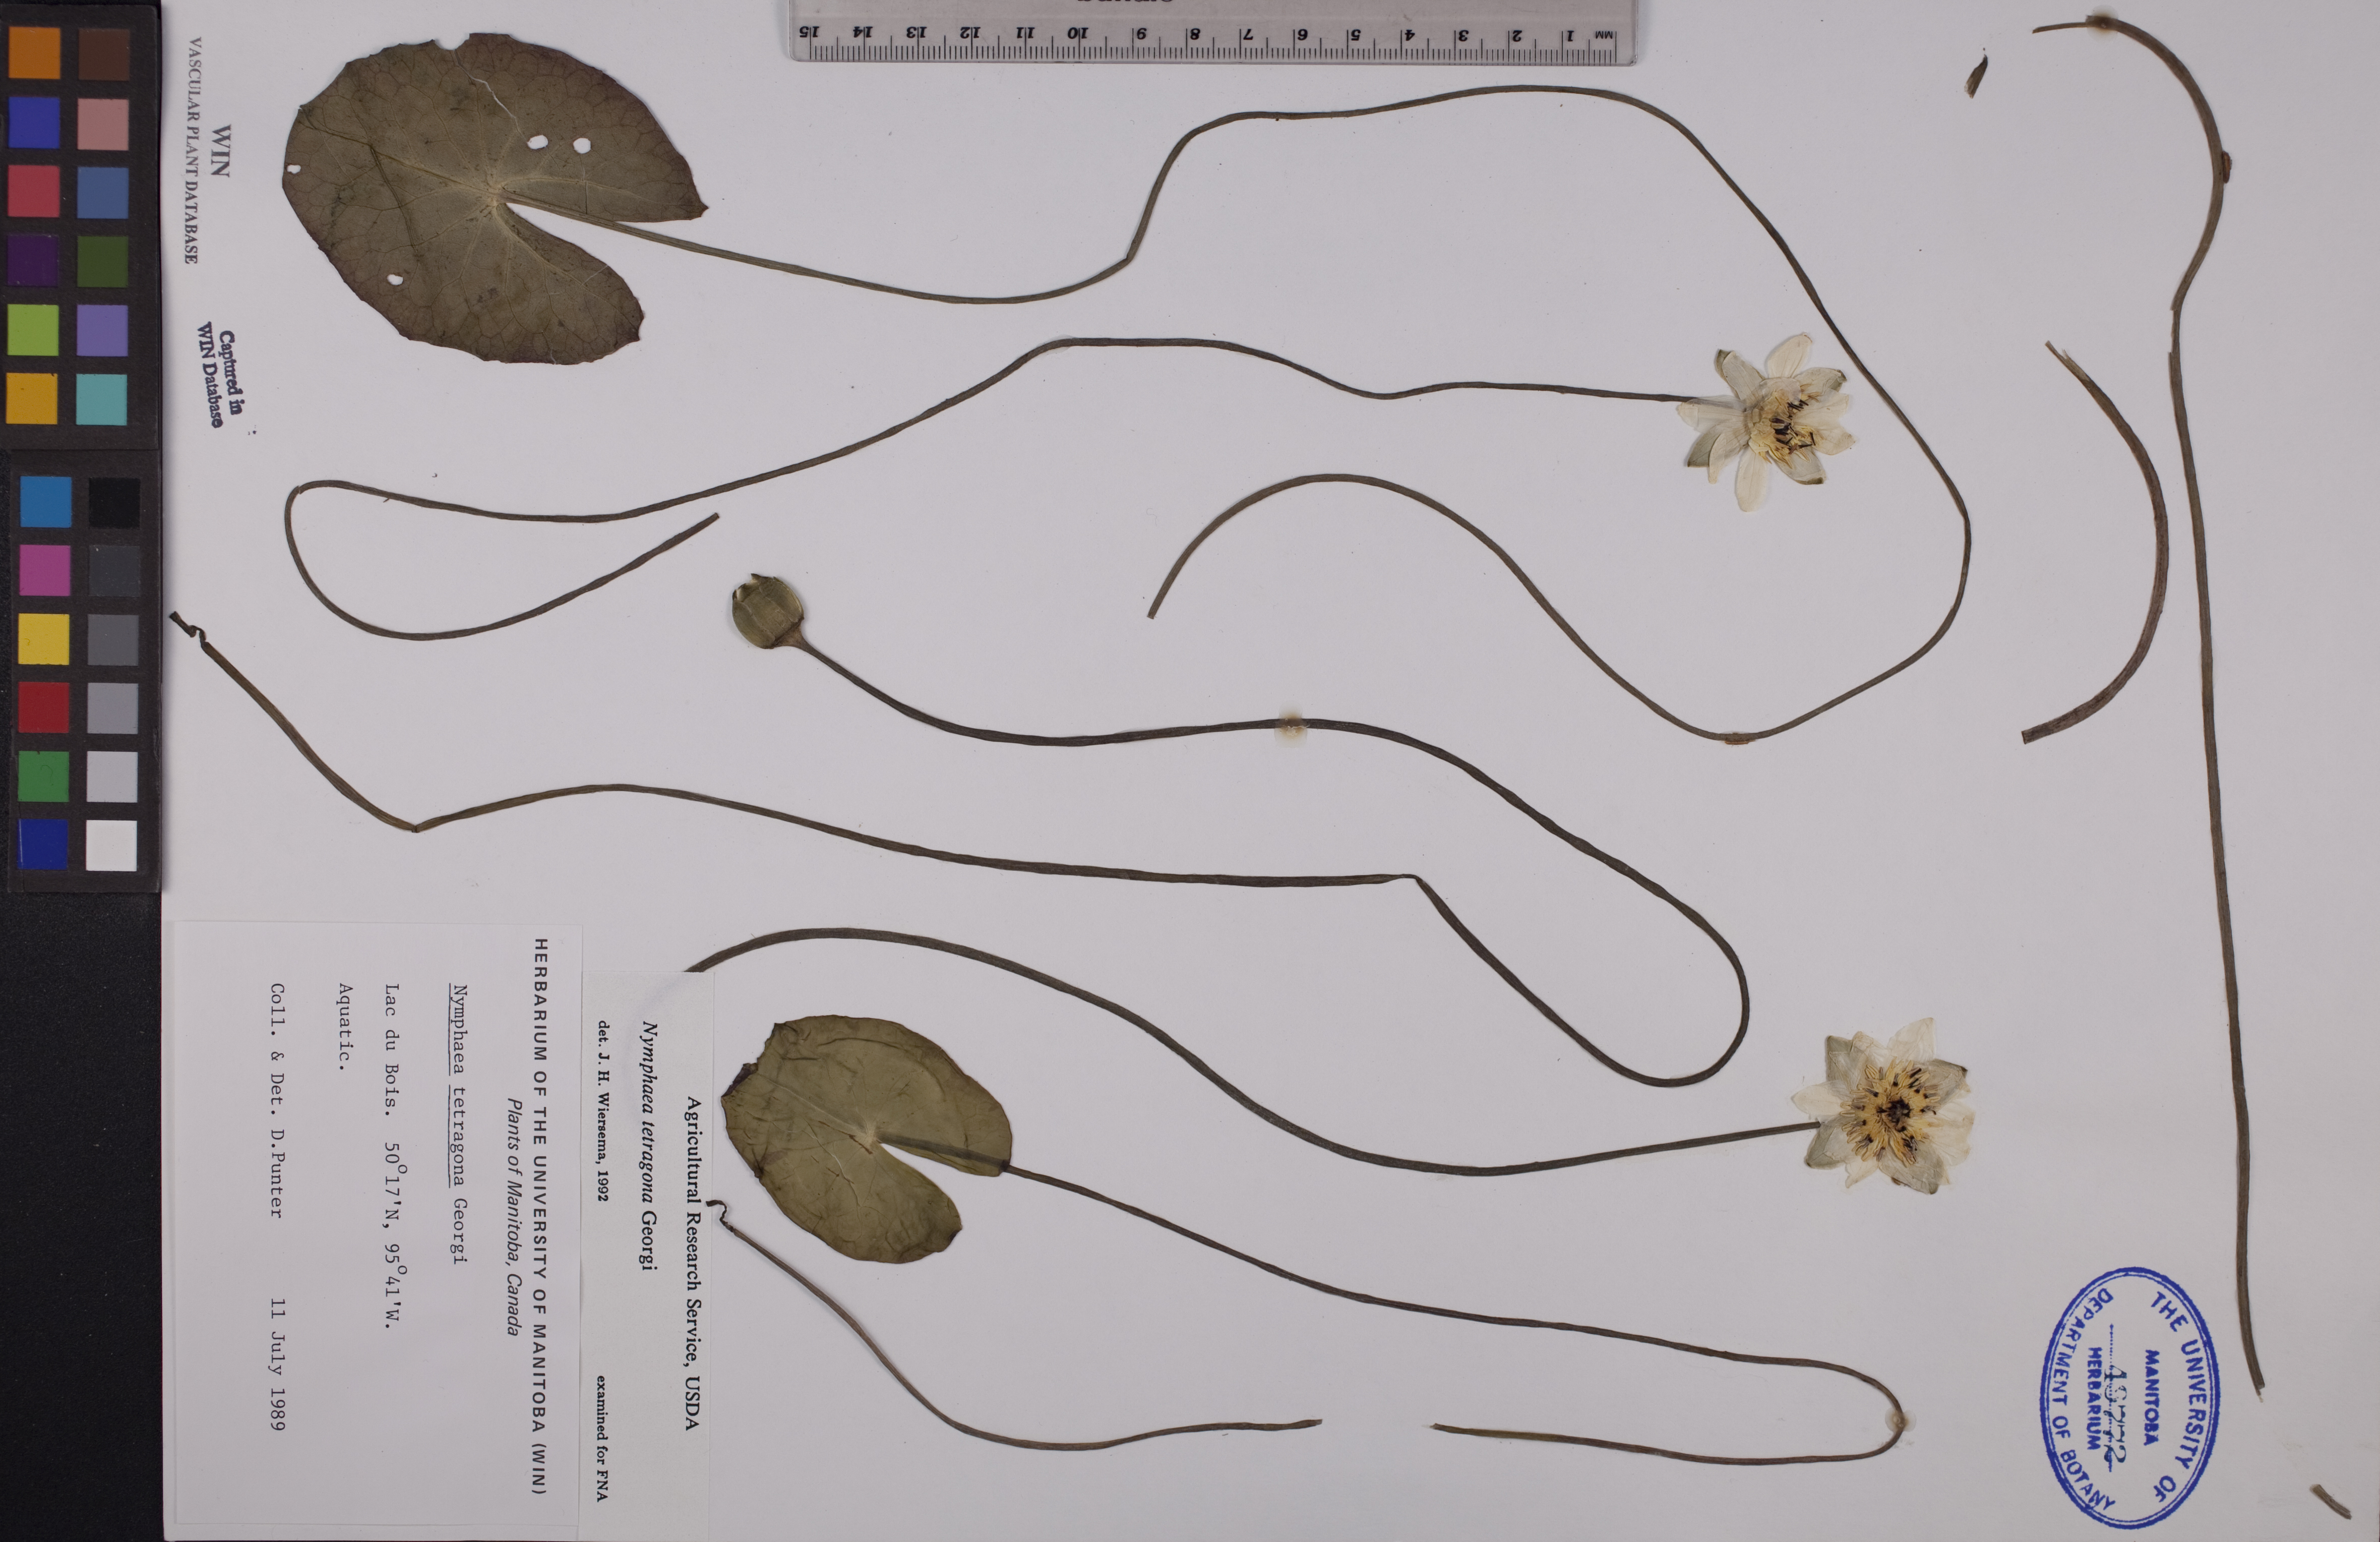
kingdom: Plantae
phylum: Tracheophyta
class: Magnoliopsida
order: Nymphaeales
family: Nymphaeaceae
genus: Nymphaea
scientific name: Nymphaea tetragona
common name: Pygmy water-lily
